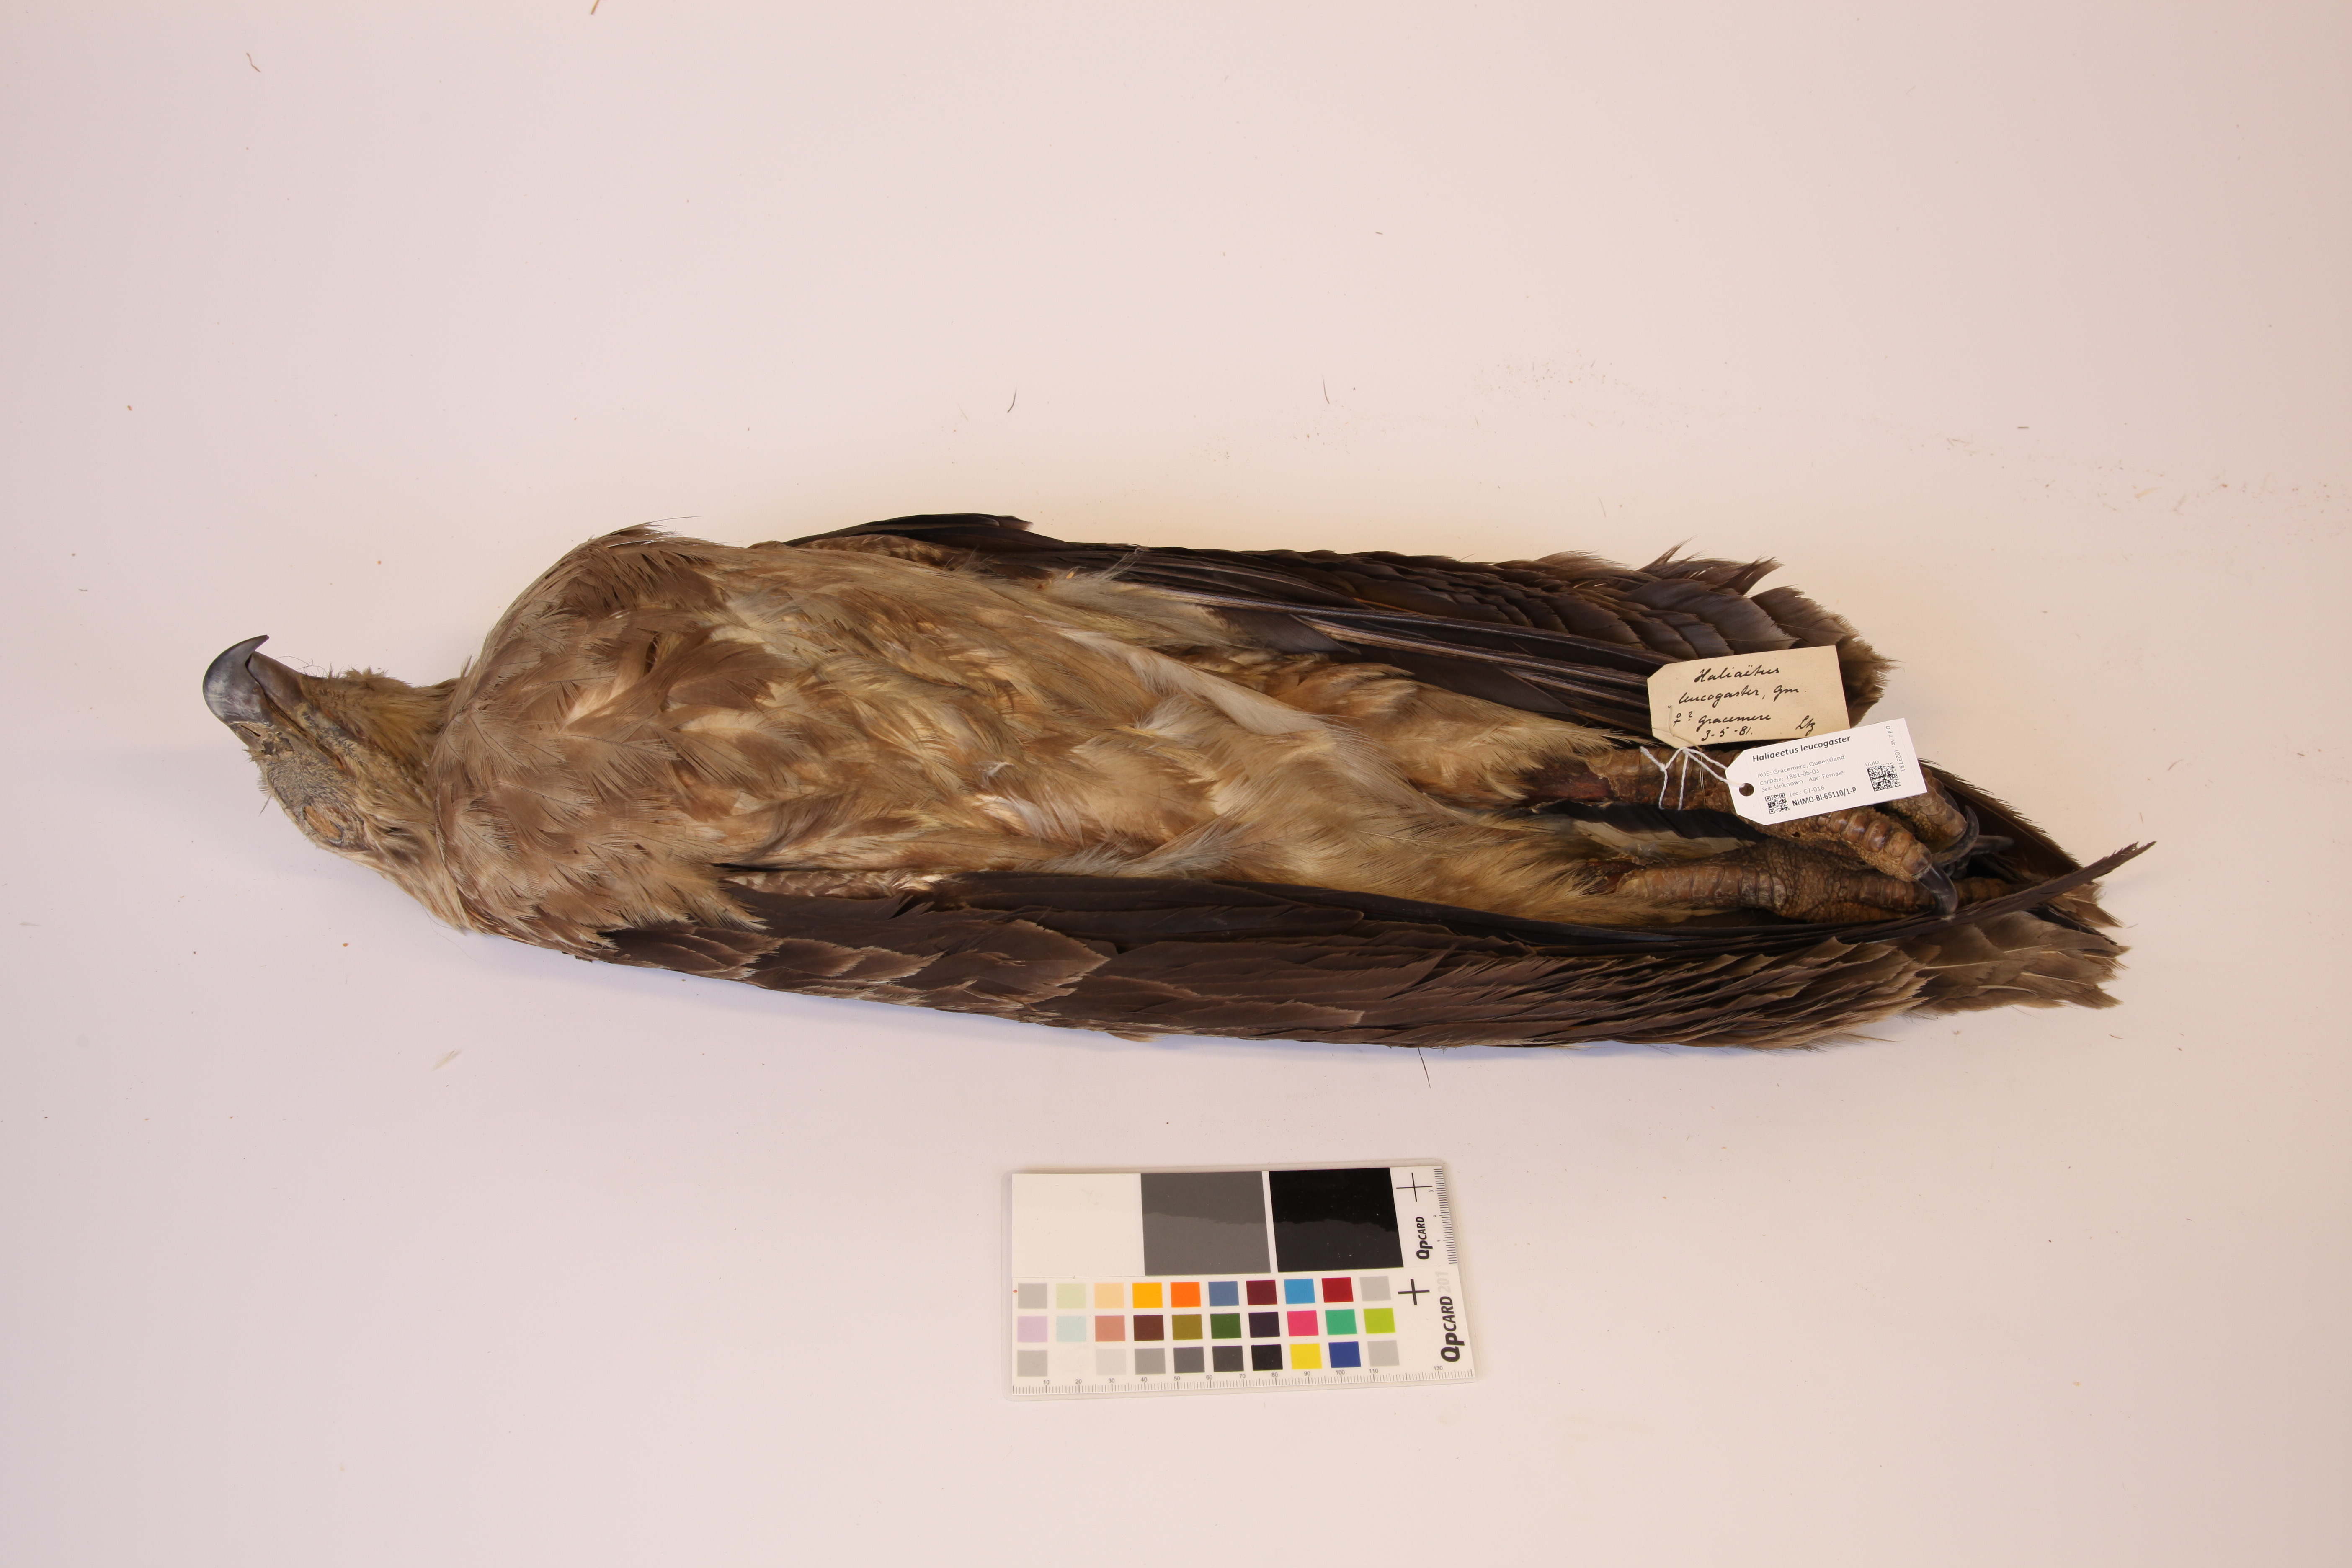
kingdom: Animalia
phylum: Chordata
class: Aves
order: Accipitriformes
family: Accipitridae
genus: Haliaeetus
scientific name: Haliaeetus leucogaster
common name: White-bellied sea eagle
